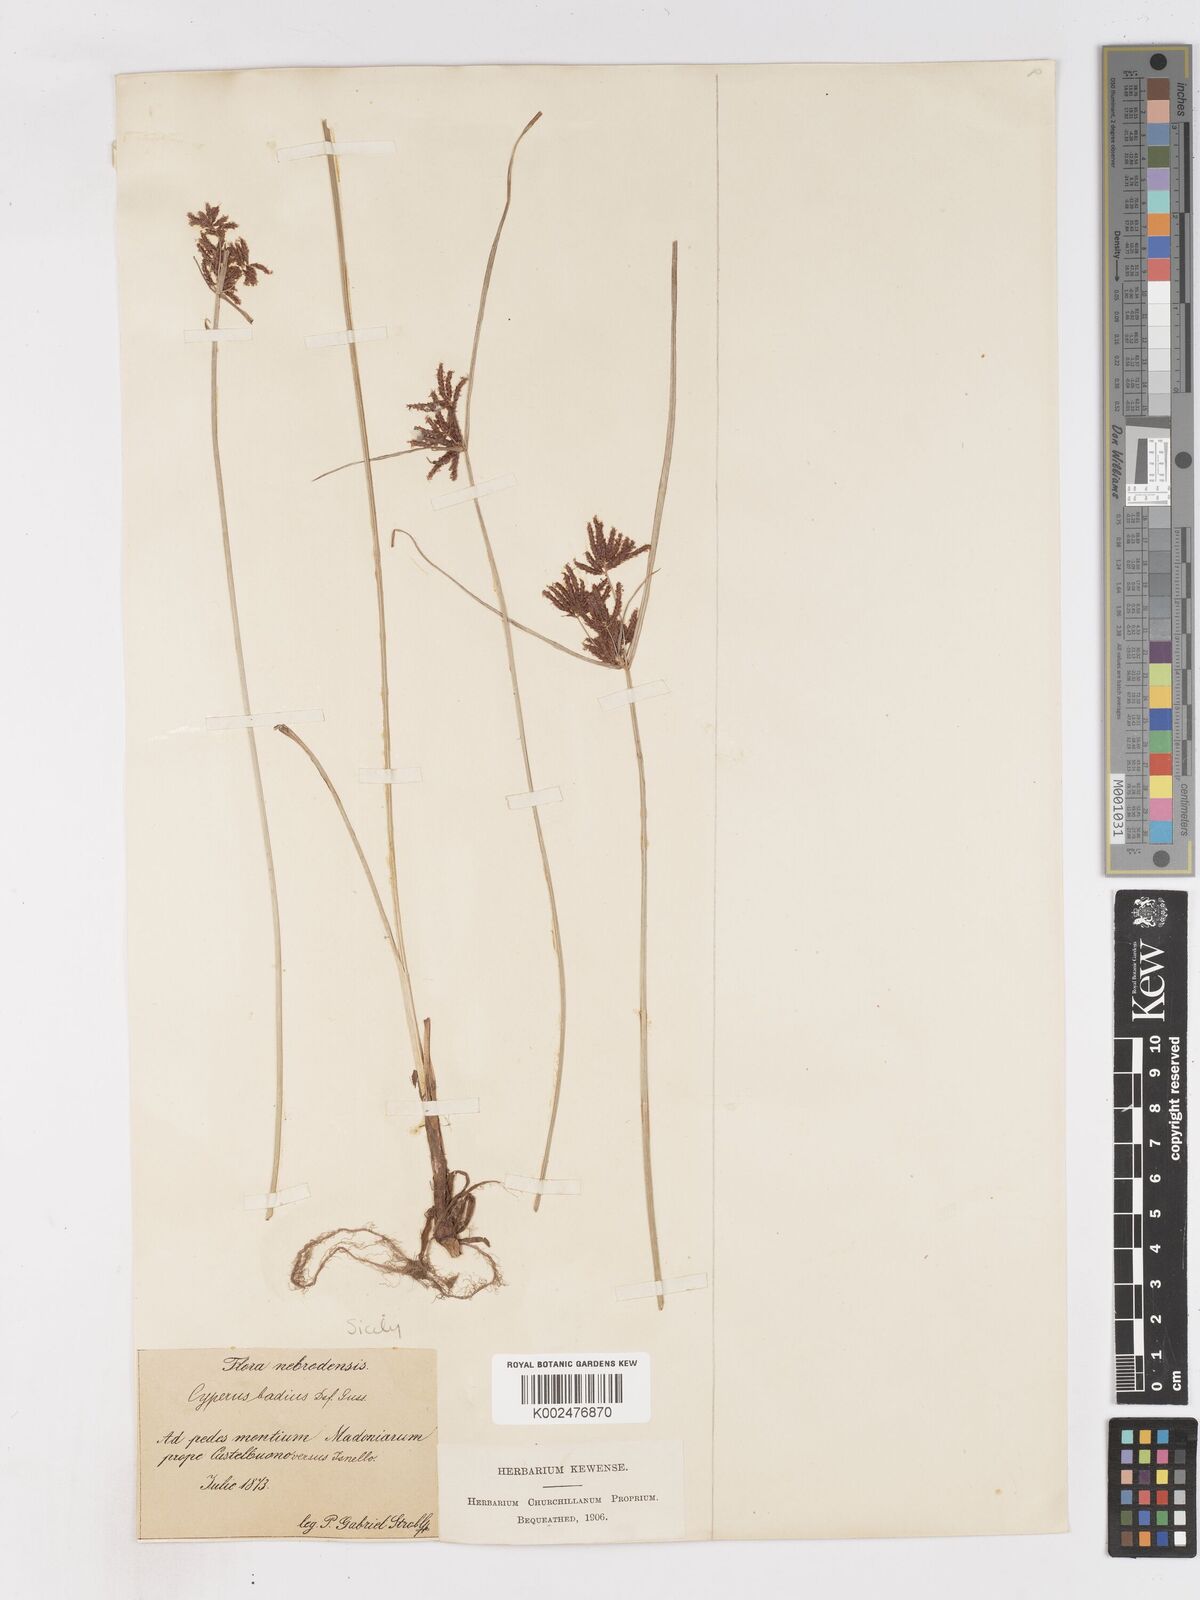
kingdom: Plantae
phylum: Tracheophyta
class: Liliopsida
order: Poales
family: Cyperaceae
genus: Cyperus
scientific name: Cyperus longus
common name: Galingale
